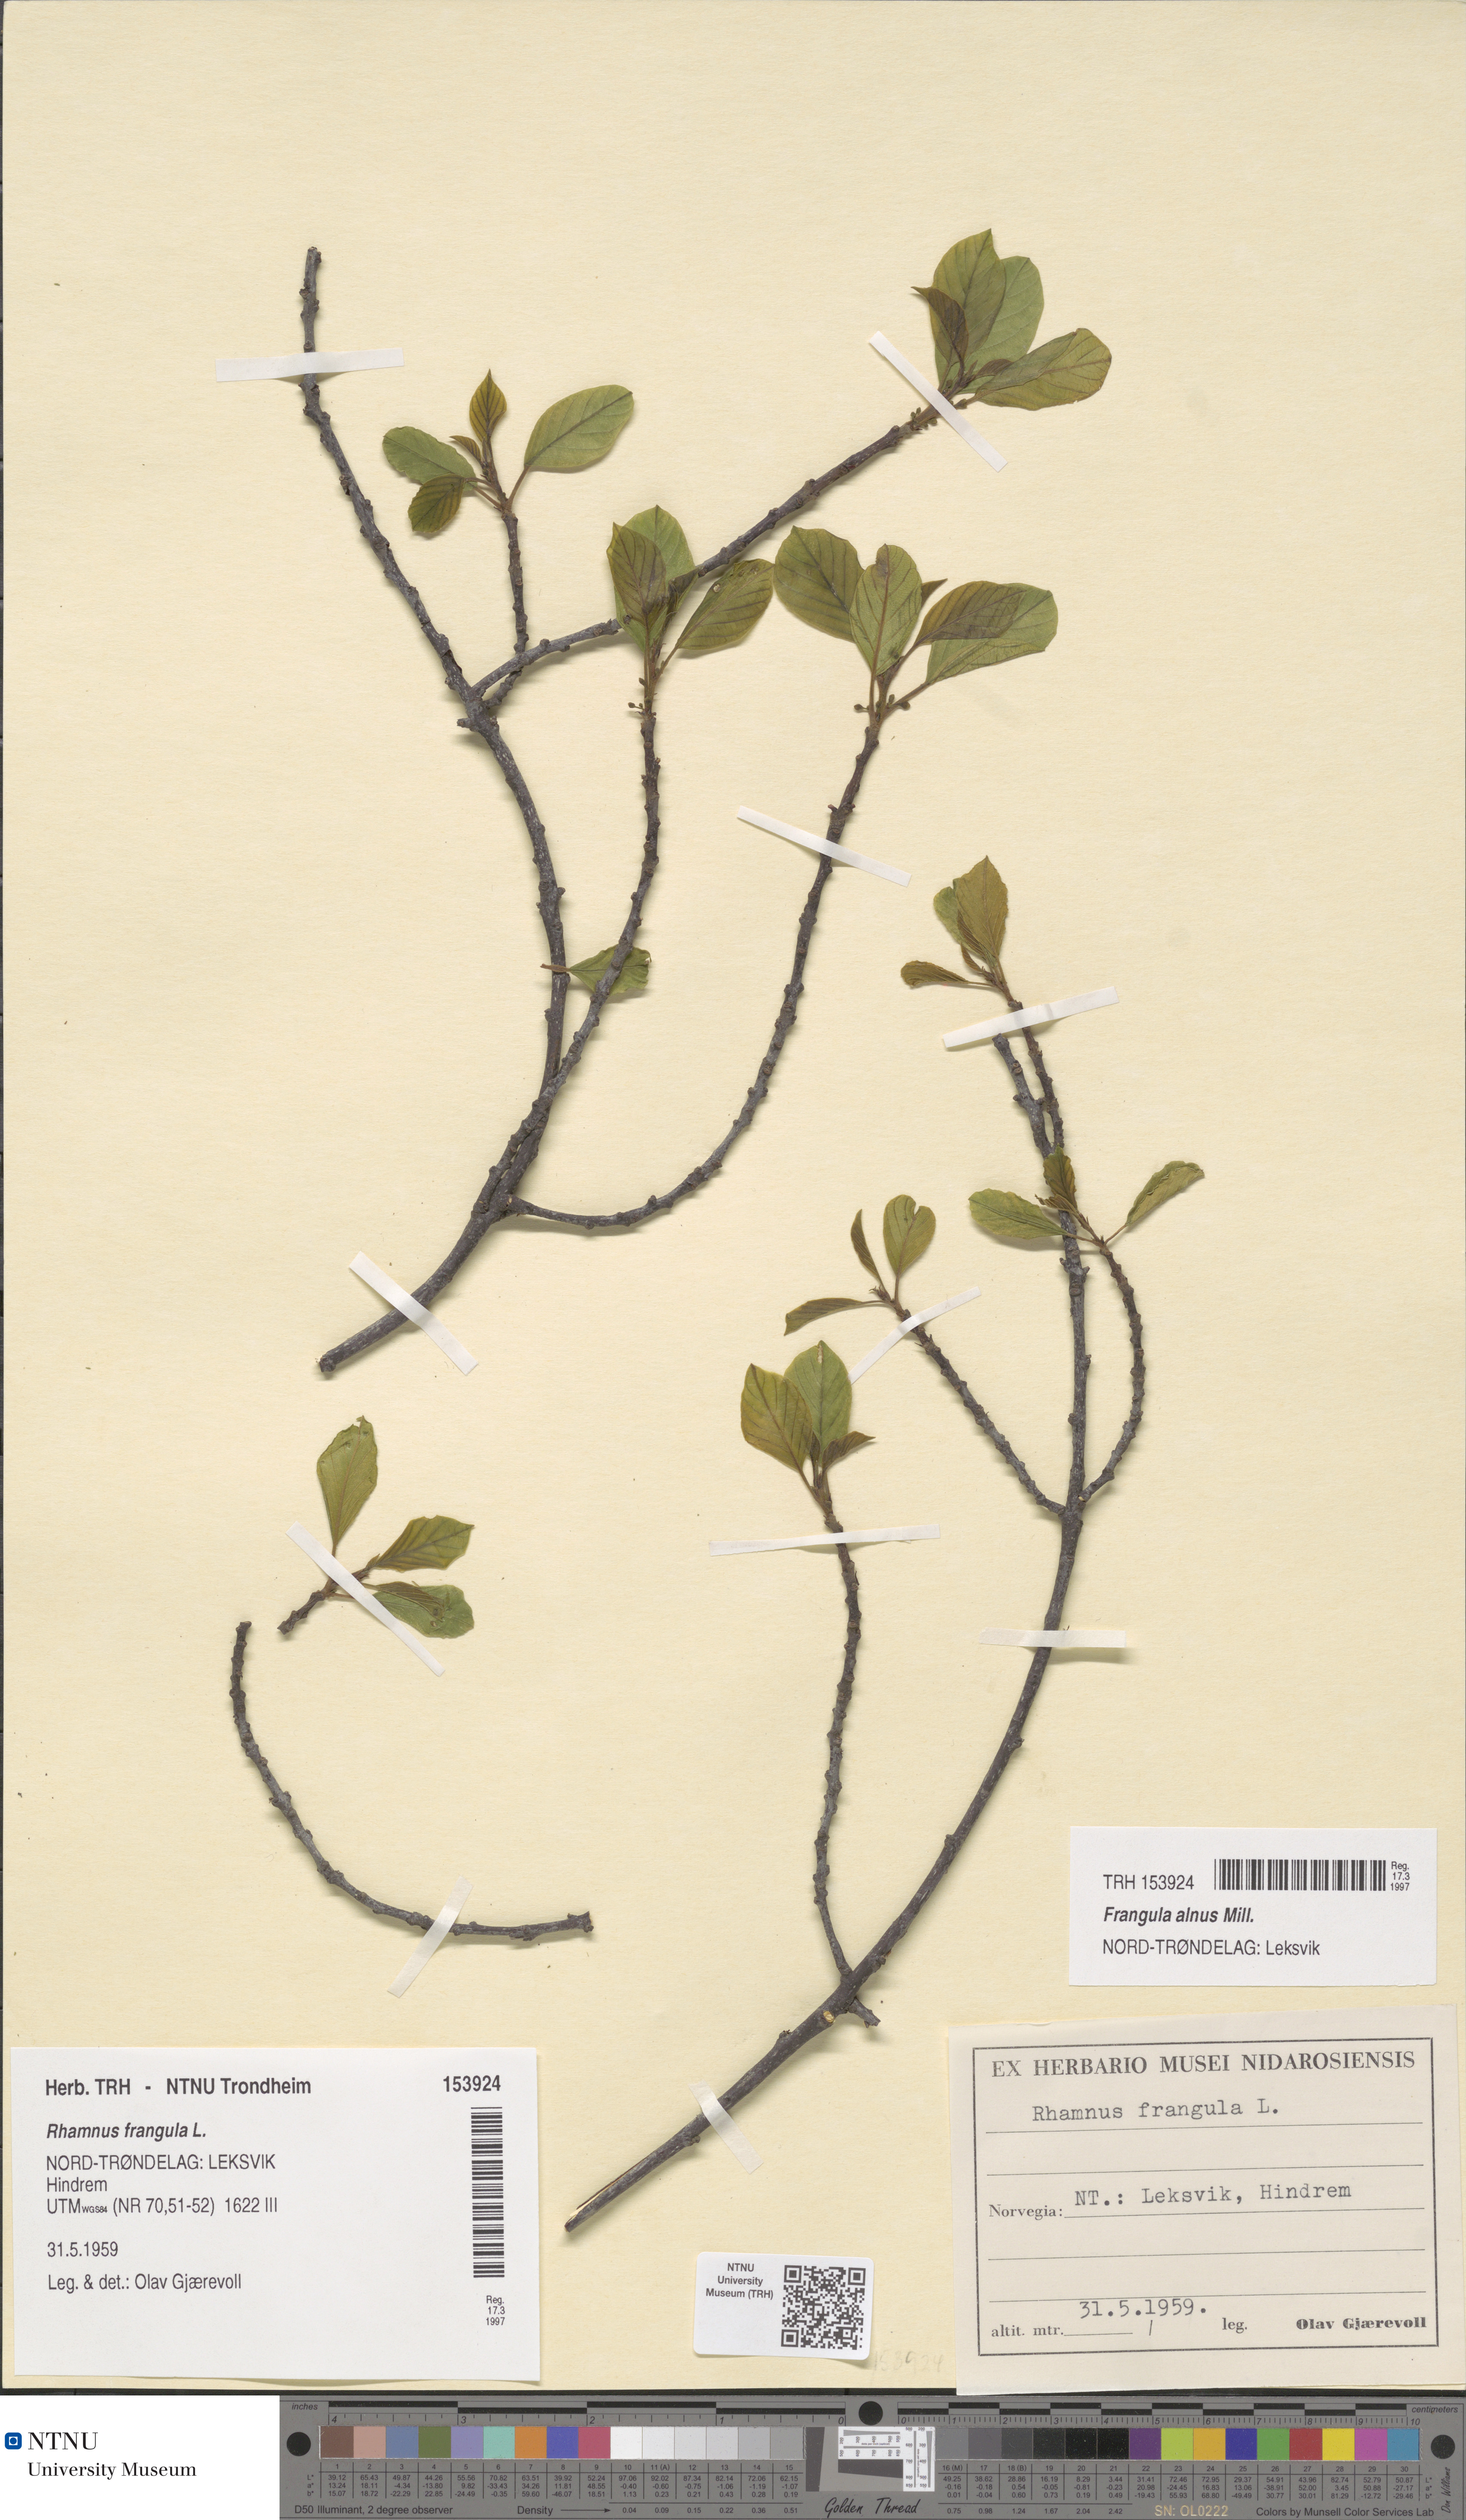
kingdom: Plantae
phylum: Tracheophyta
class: Magnoliopsida
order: Rosales
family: Rhamnaceae
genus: Frangula
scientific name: Frangula alnus
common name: Alder buckthorn
